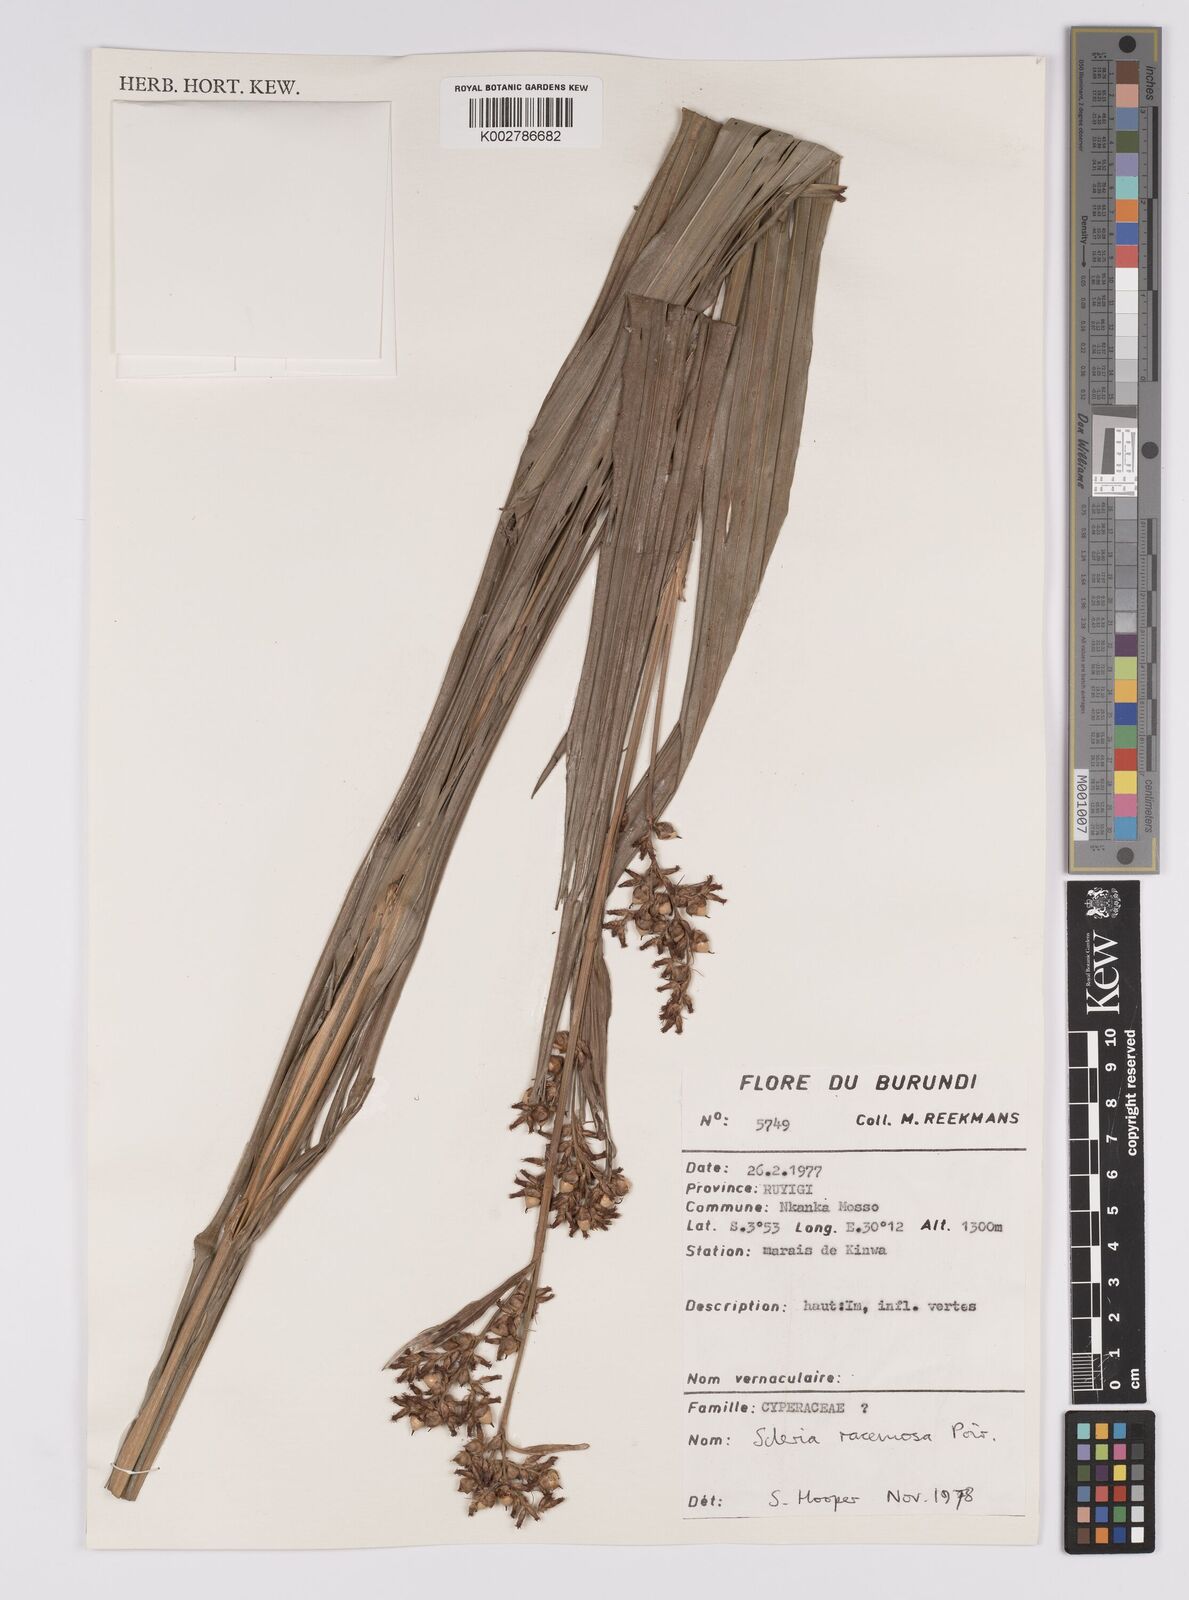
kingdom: Plantae
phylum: Tracheophyta
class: Liliopsida
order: Poales
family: Cyperaceae
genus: Scleria
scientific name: Scleria racemosa
